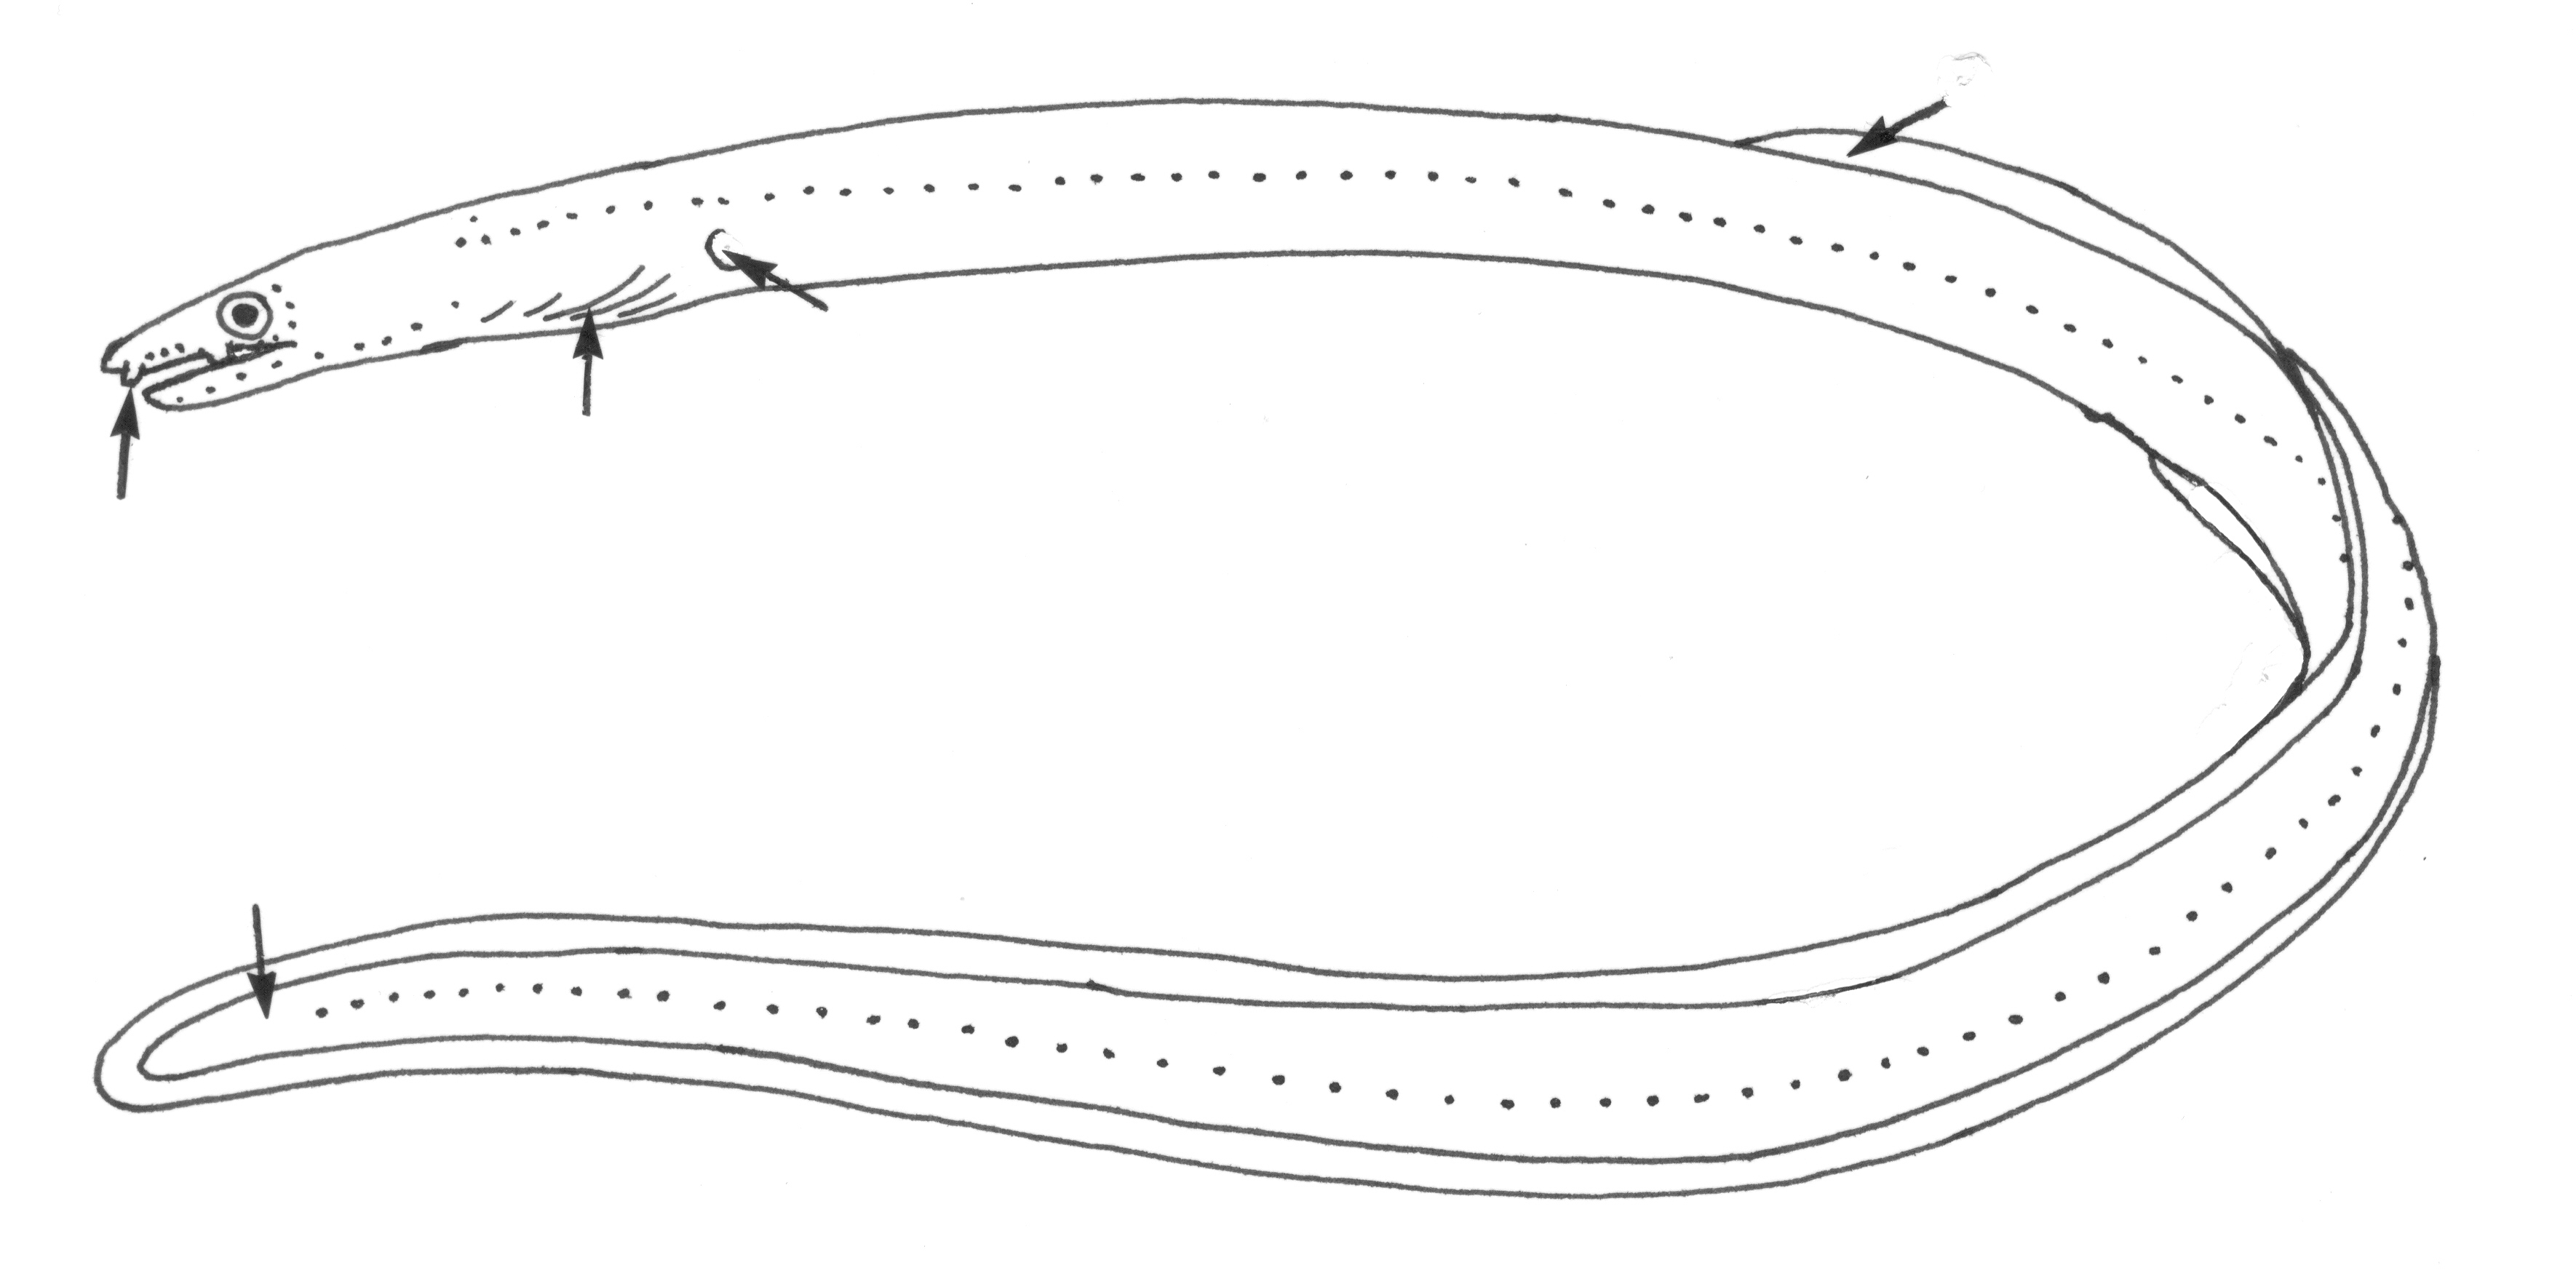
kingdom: Animalia
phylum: Chordata
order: Anguilliformes
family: Ophichthidae
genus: Scolecenchelys
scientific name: Scolecenchelys
